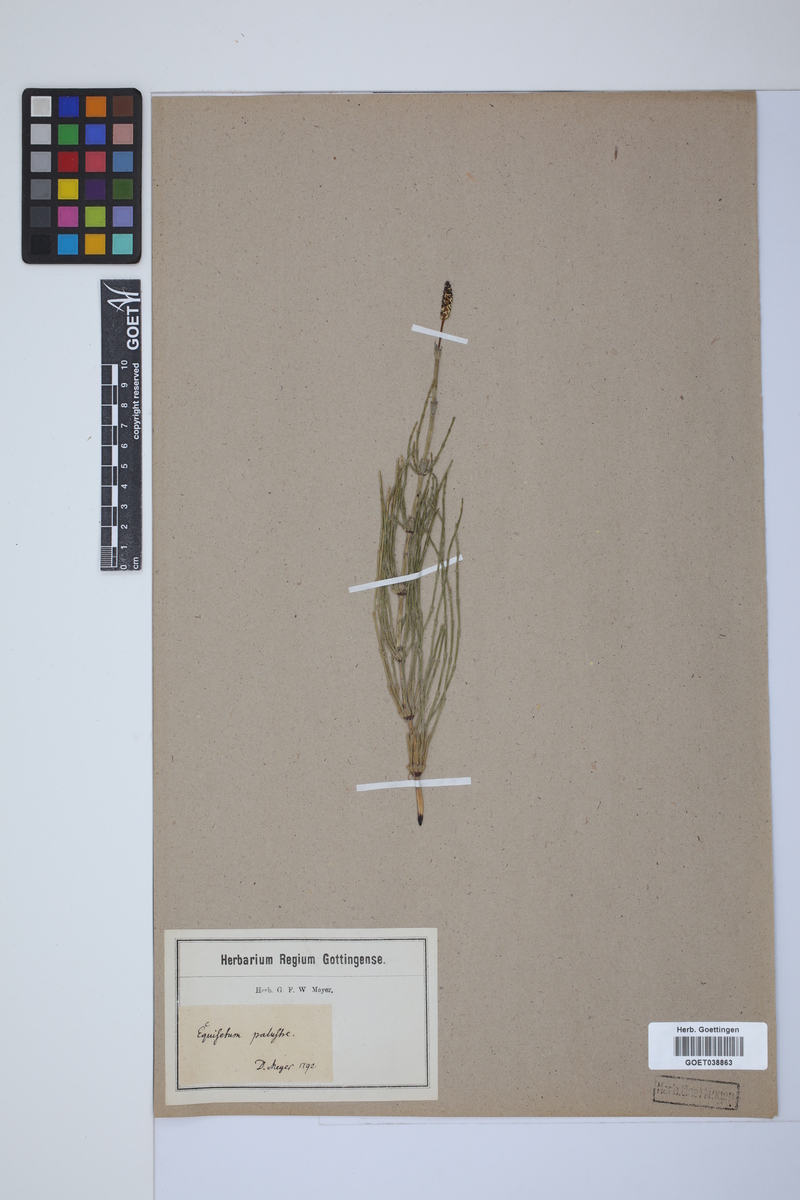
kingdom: Plantae
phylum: Tracheophyta
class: Polypodiopsida
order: Equisetales
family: Equisetaceae
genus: Equisetum
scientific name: Equisetum palustre
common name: Marsh horsetail
